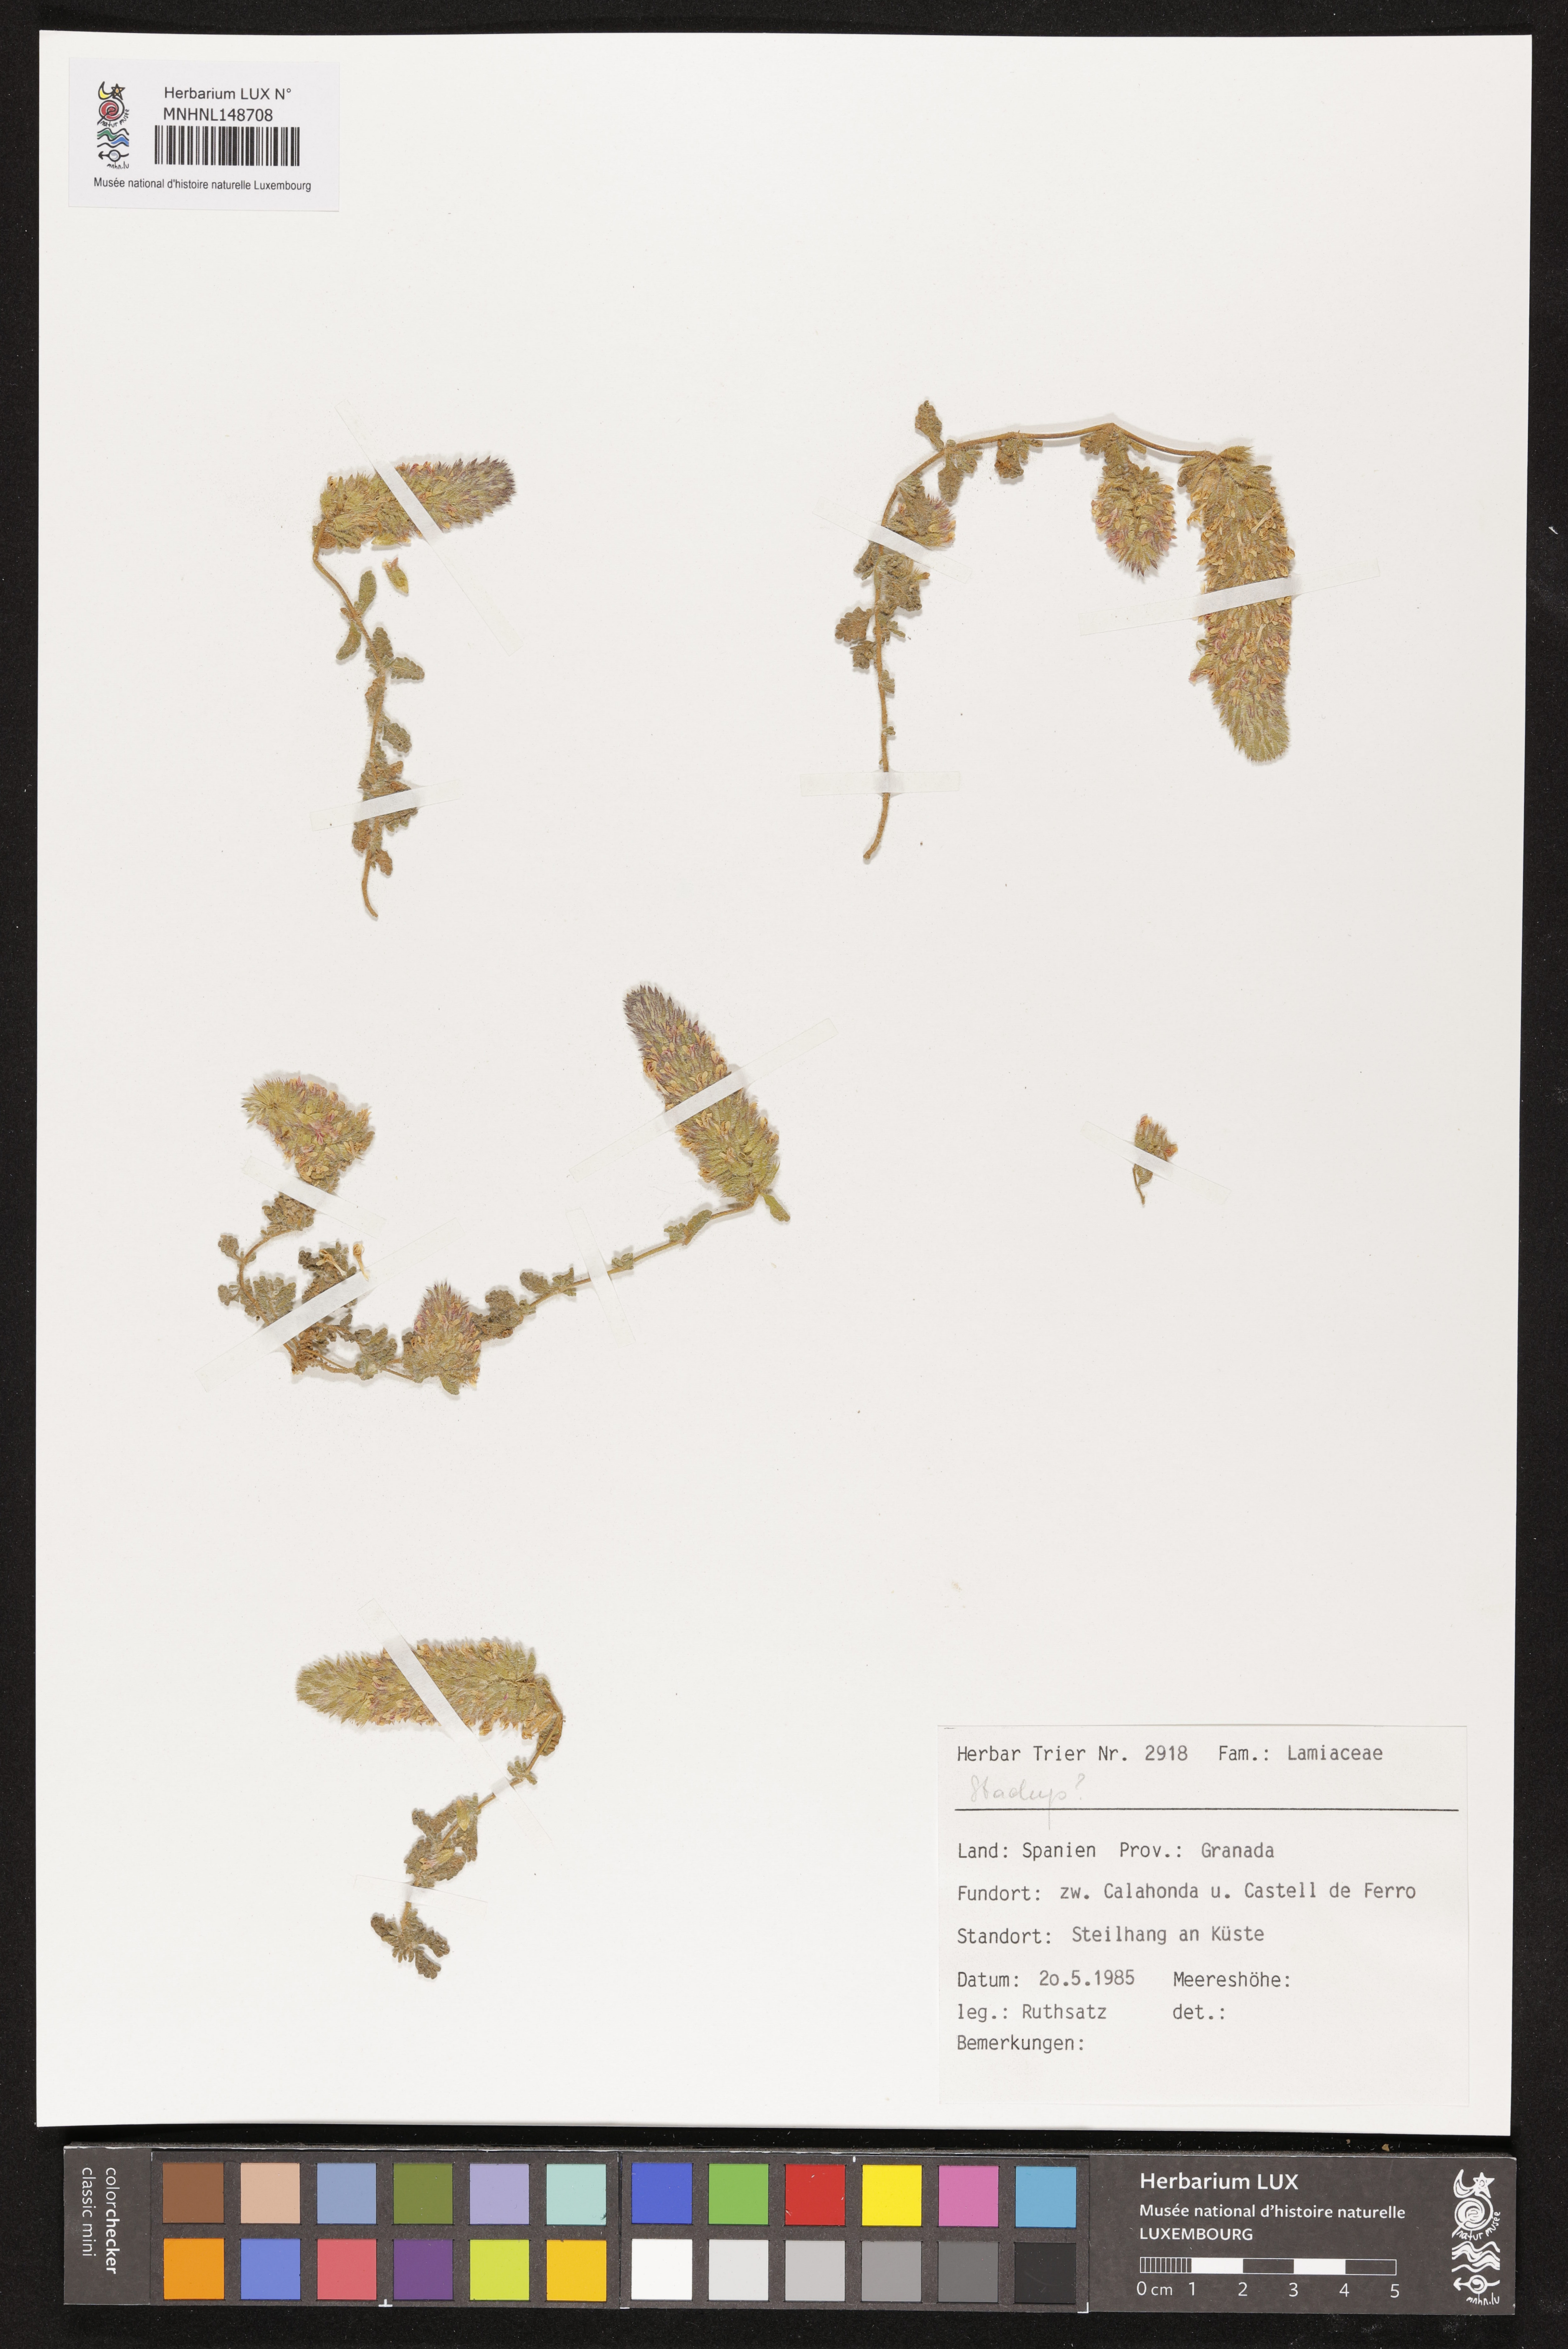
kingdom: Plantae
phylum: Tracheophyta
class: Magnoliopsida
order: Lamiales
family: Lamiaceae
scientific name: Lamiaceae
